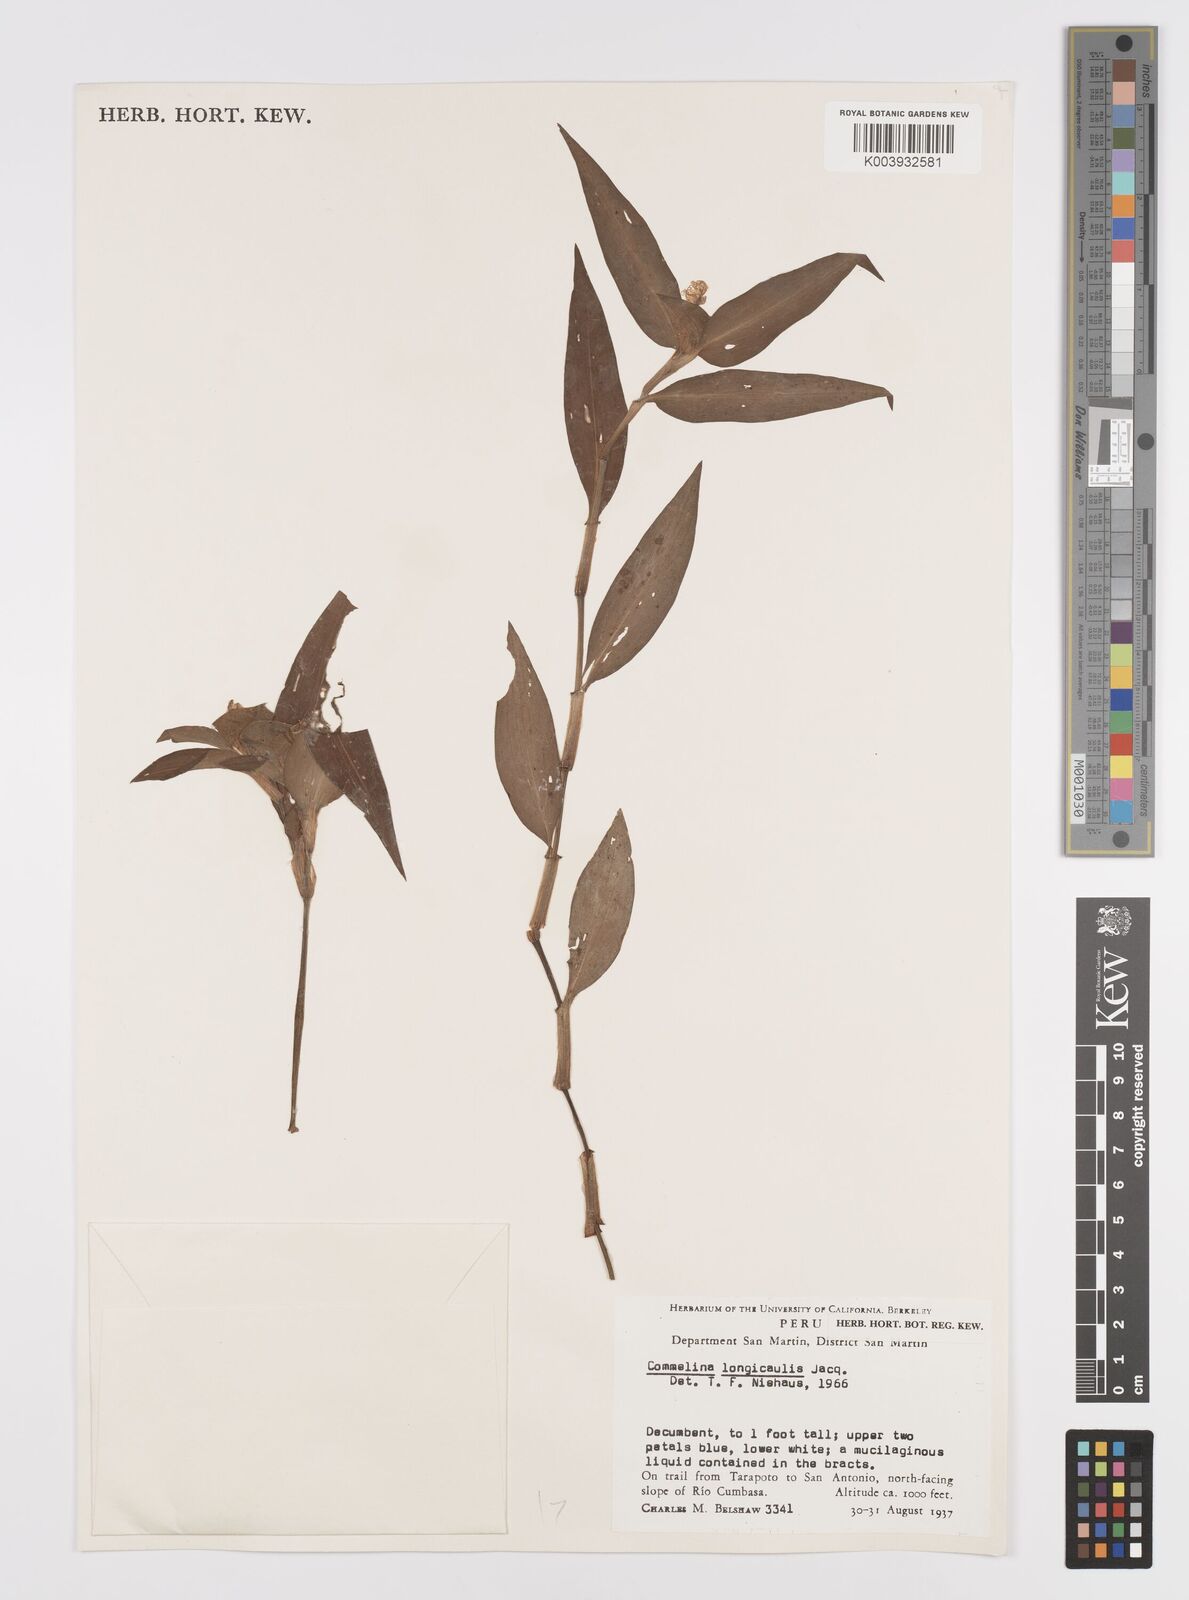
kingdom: Plantae
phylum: Tracheophyta
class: Liliopsida
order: Commelinales
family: Commelinaceae
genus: Commelina
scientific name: Commelina diffusa
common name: Climbing dayflower
